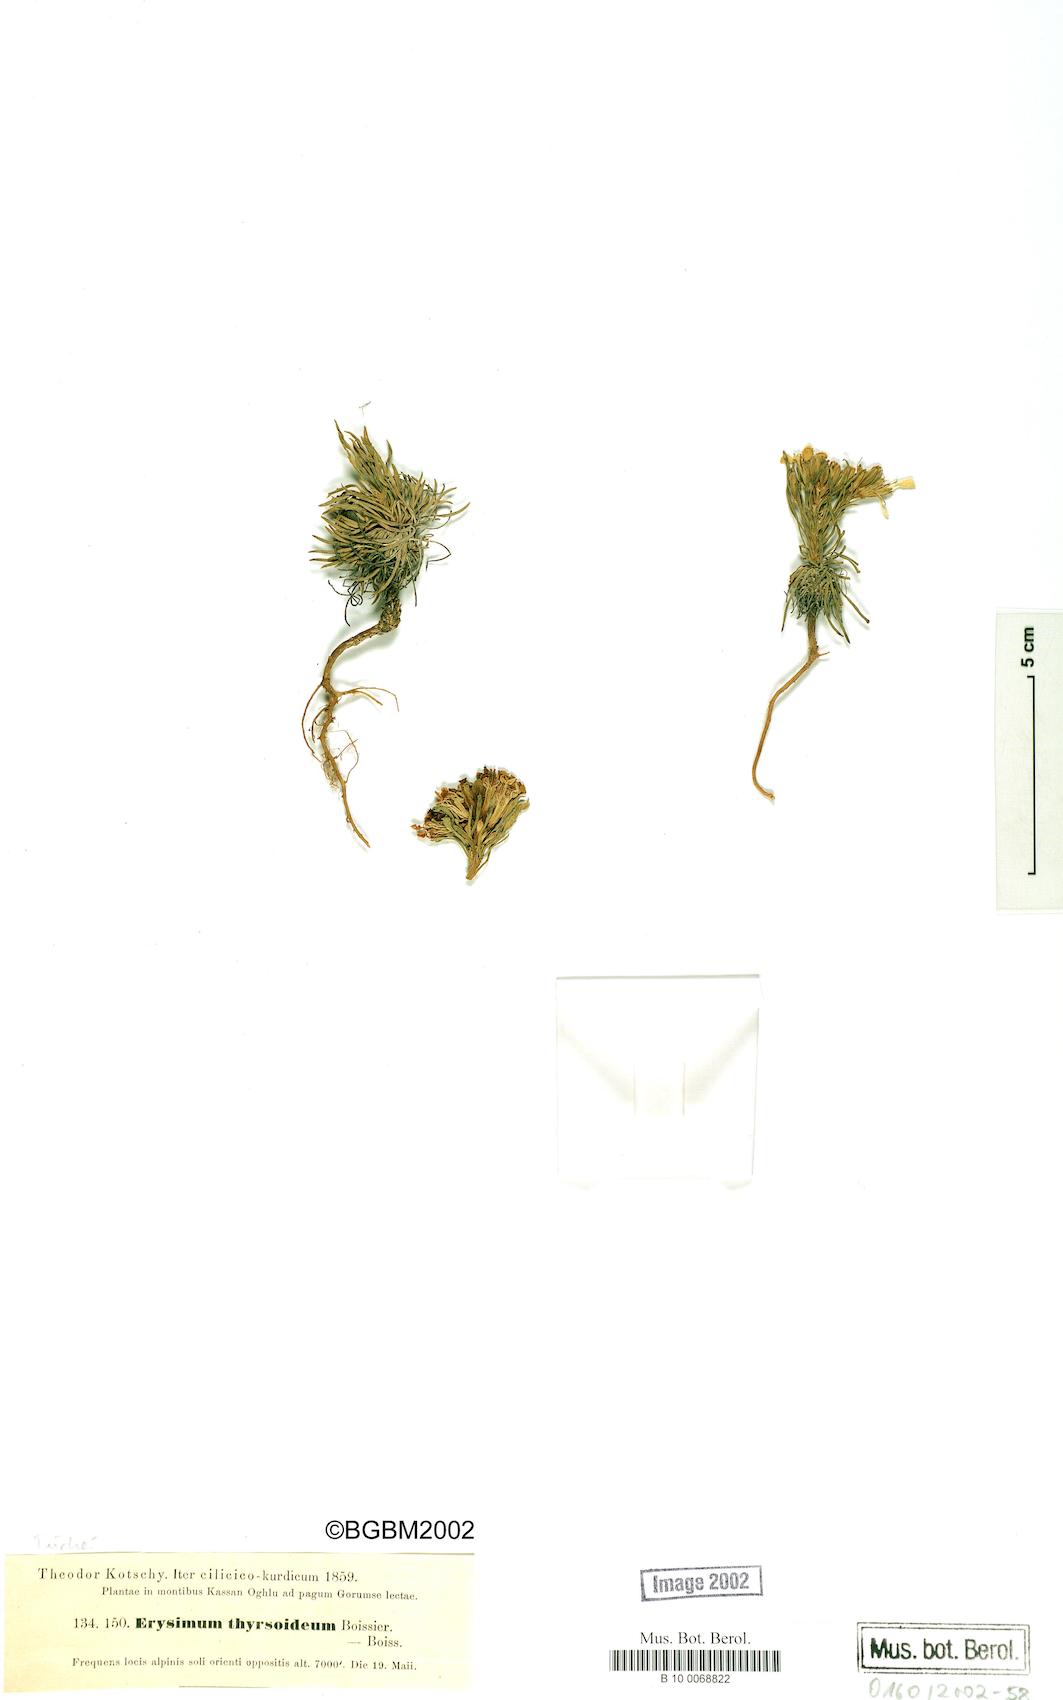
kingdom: Plantae
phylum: Tracheophyta
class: Magnoliopsida
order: Brassicales
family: Brassicaceae
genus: Erysimum
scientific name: Erysimum pycnophyllum
